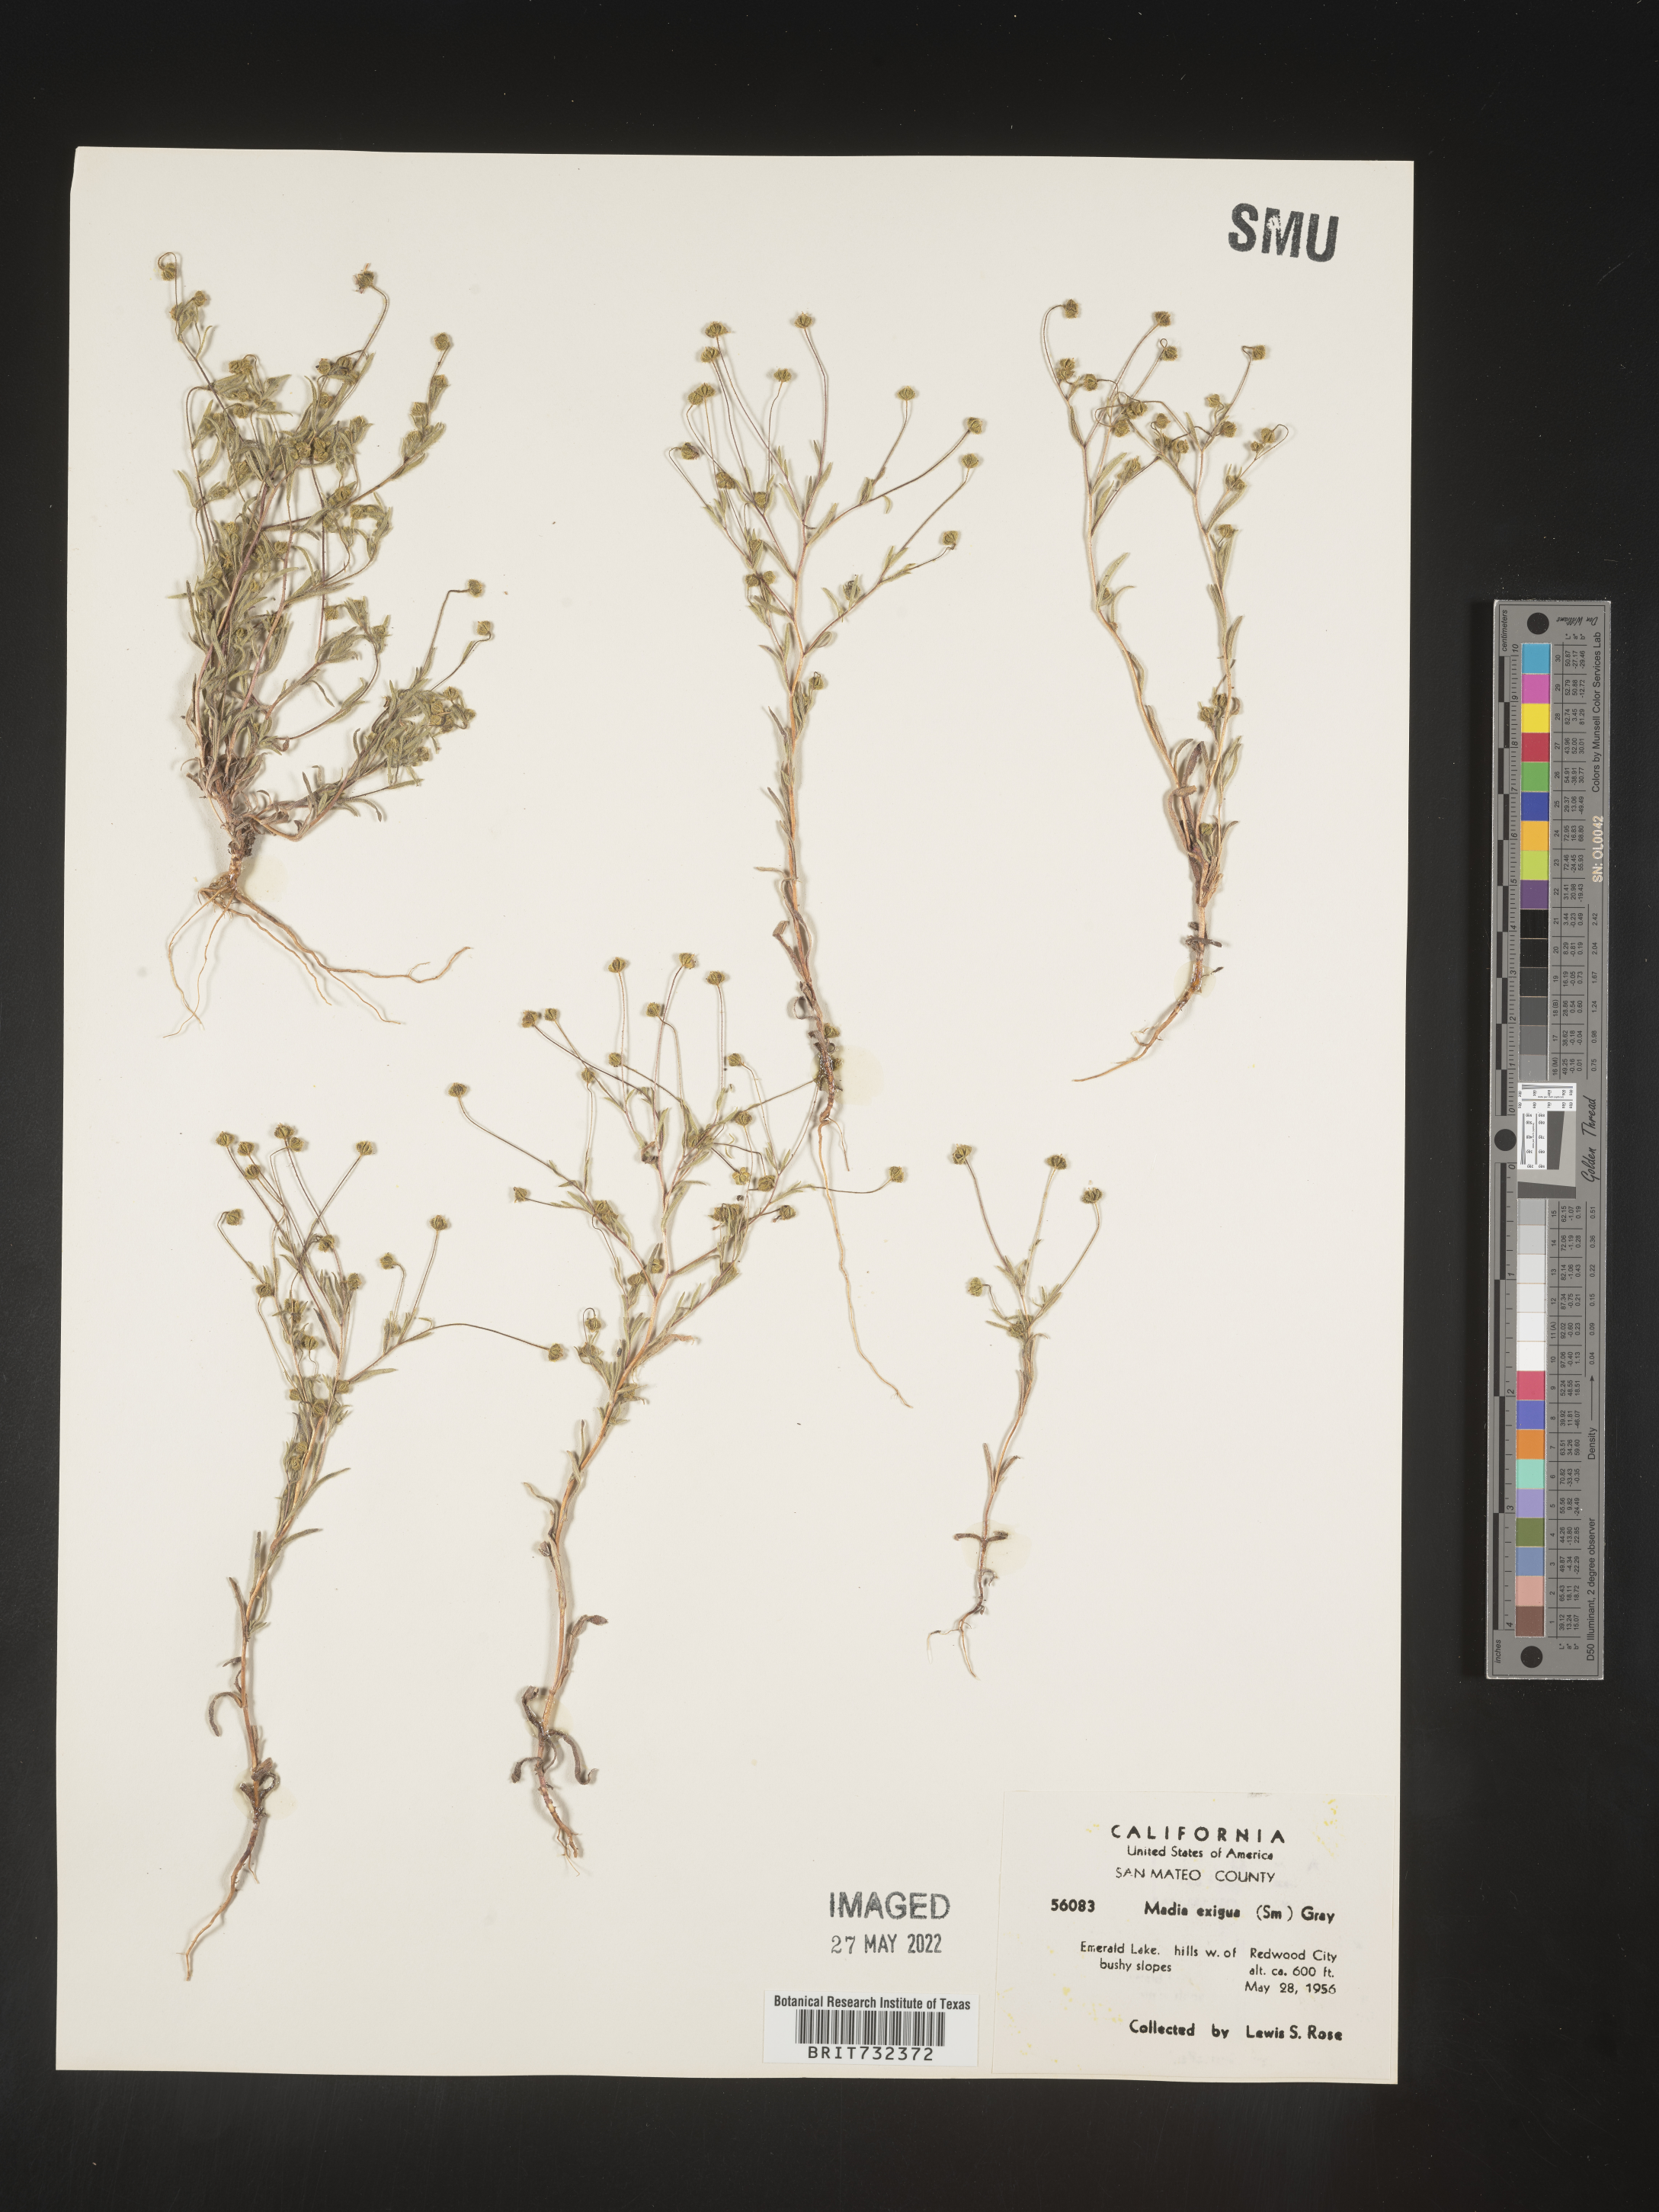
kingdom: Plantae
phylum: Tracheophyta
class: Magnoliopsida
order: Asterales
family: Asteraceae
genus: Madia
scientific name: Madia
